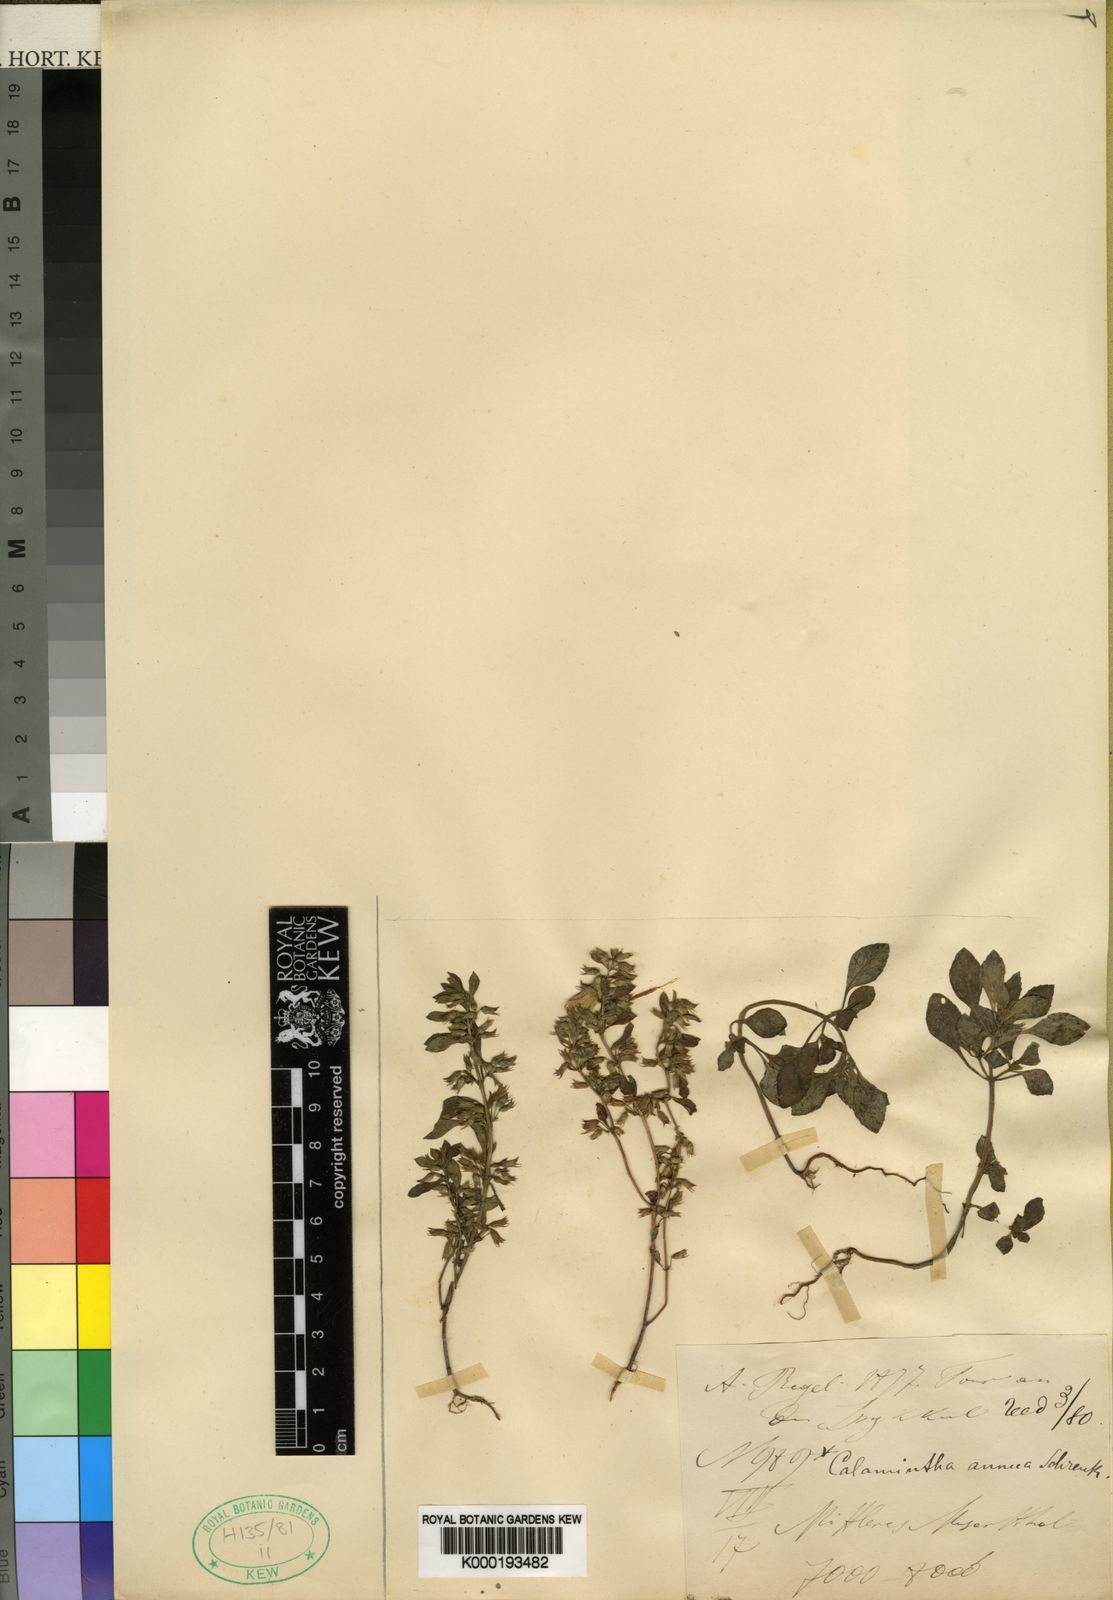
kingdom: Plantae
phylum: Tracheophyta
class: Magnoliopsida
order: Lamiales
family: Lamiaceae
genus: Clinopodium
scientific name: Clinopodium debile
